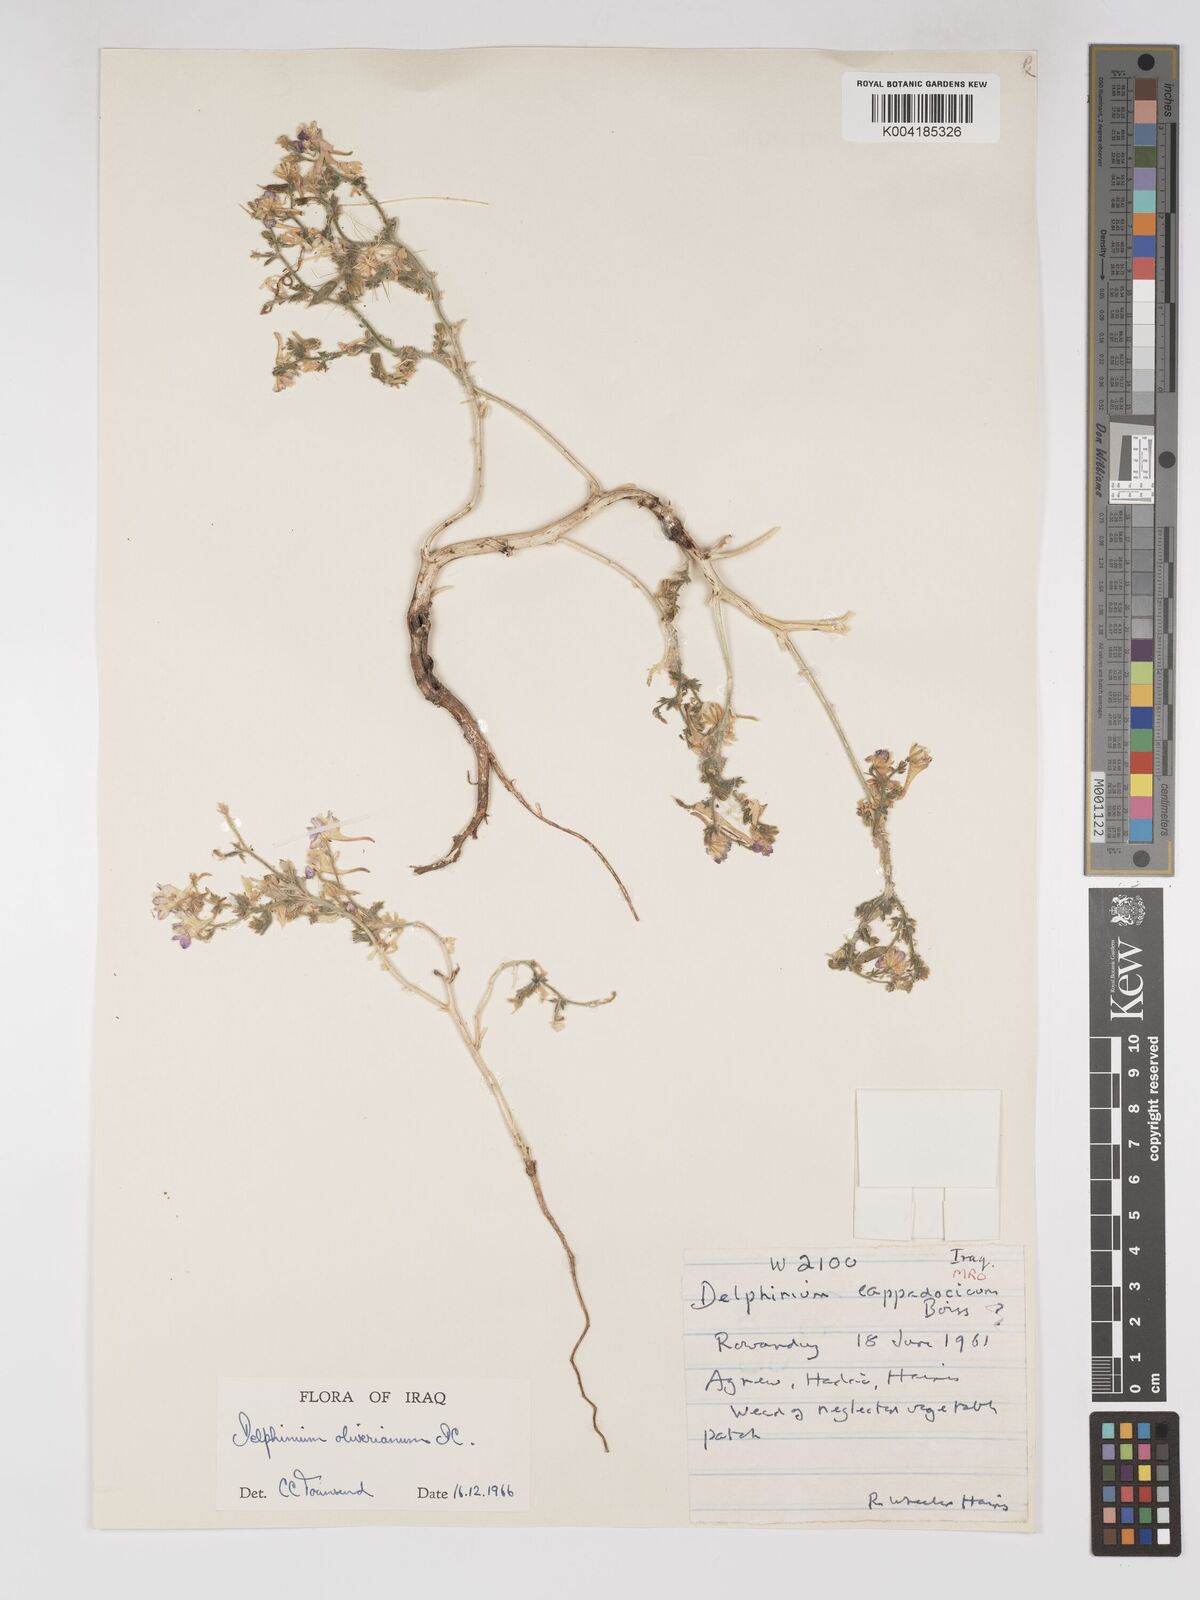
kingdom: Plantae
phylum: Tracheophyta
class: Magnoliopsida
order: Ranunculales
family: Ranunculaceae
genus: Delphinium
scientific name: Delphinium oliverianum
